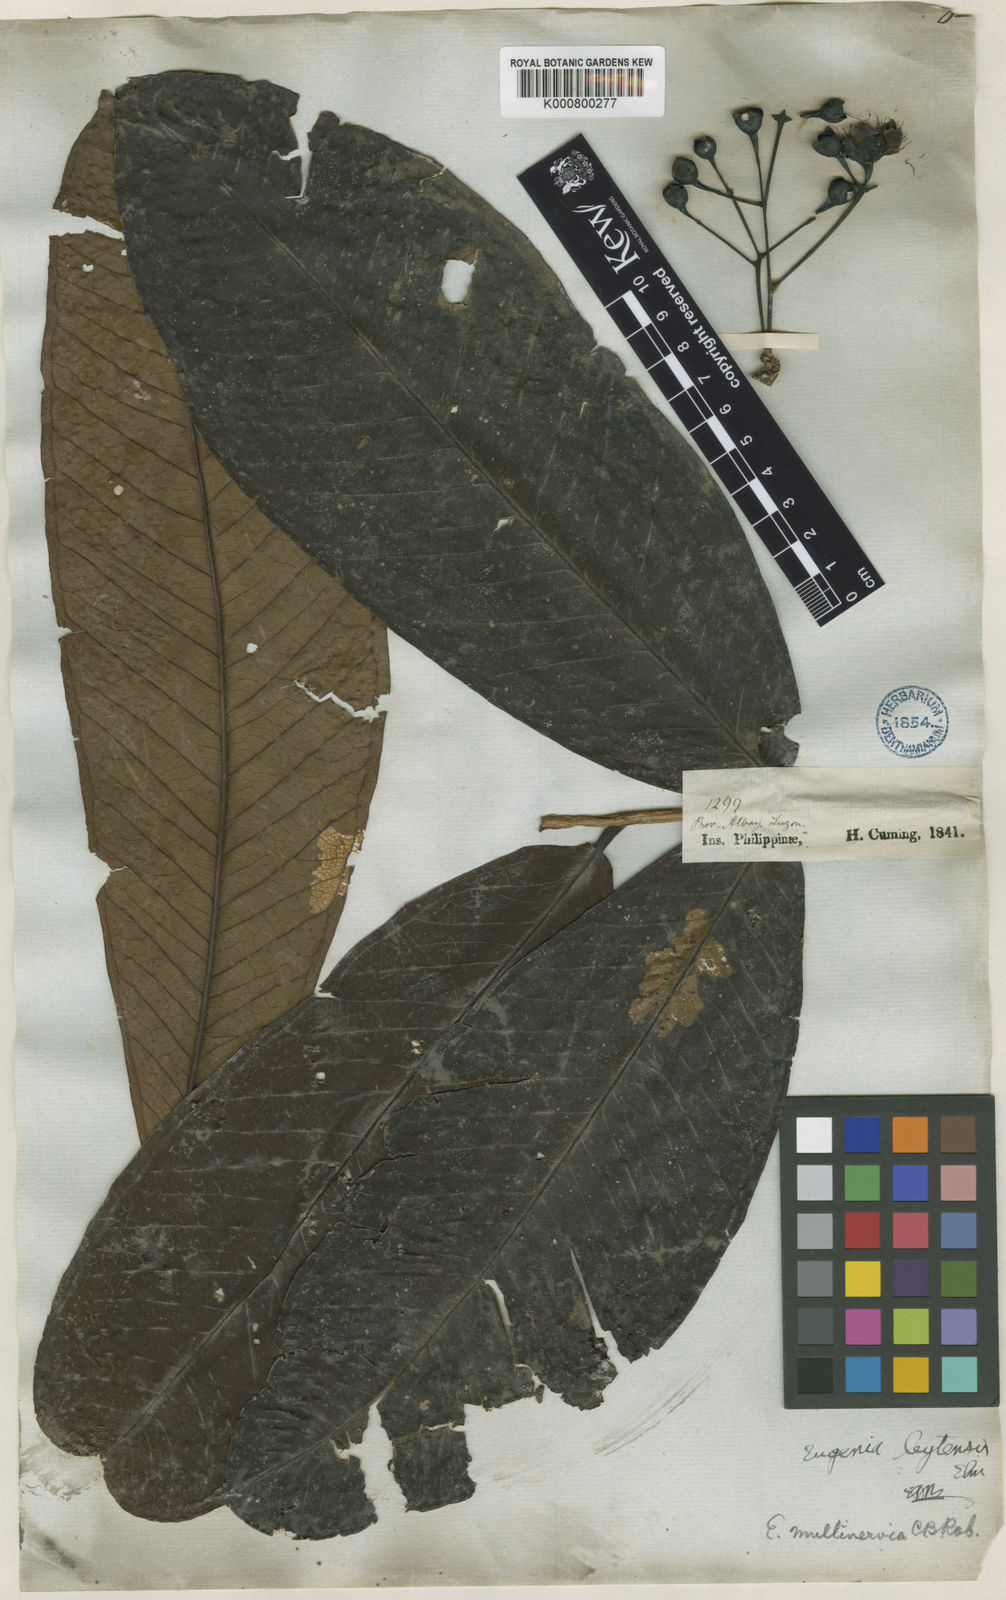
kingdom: Plantae
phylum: Tracheophyta
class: Magnoliopsida
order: Myrtales
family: Myrtaceae
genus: Syzygium
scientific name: Syzygium
